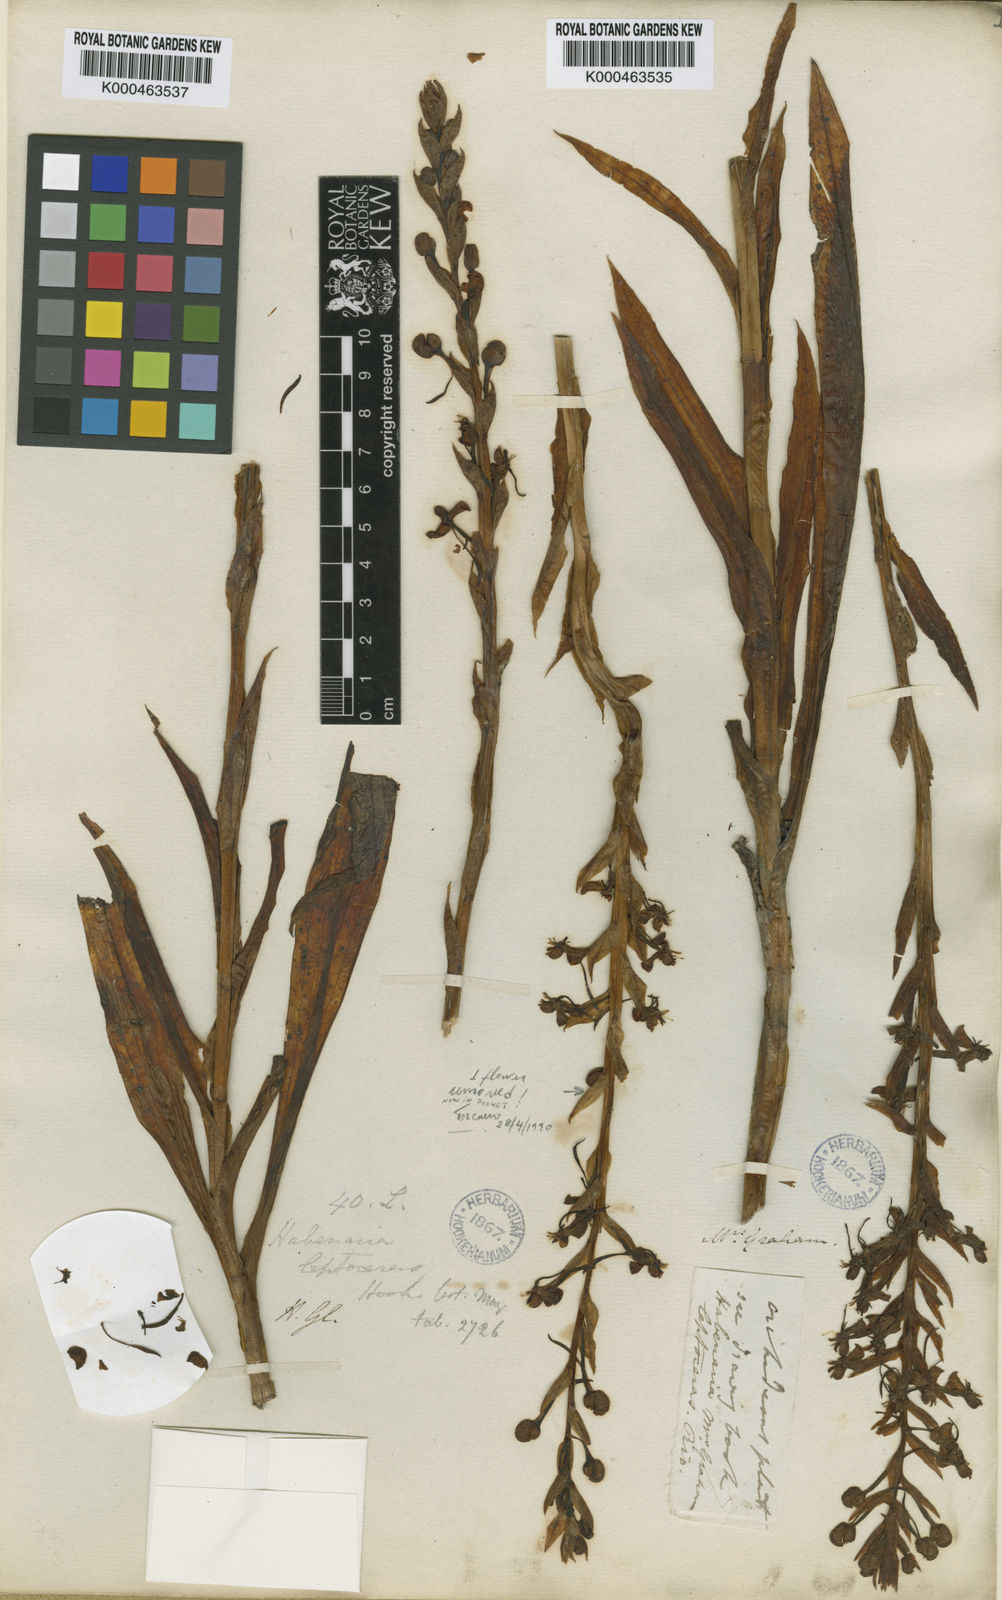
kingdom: Plantae
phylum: Tracheophyta
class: Liliopsida
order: Asparagales
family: Orchidaceae
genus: Habenaria
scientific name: Habenaria leptoceras
